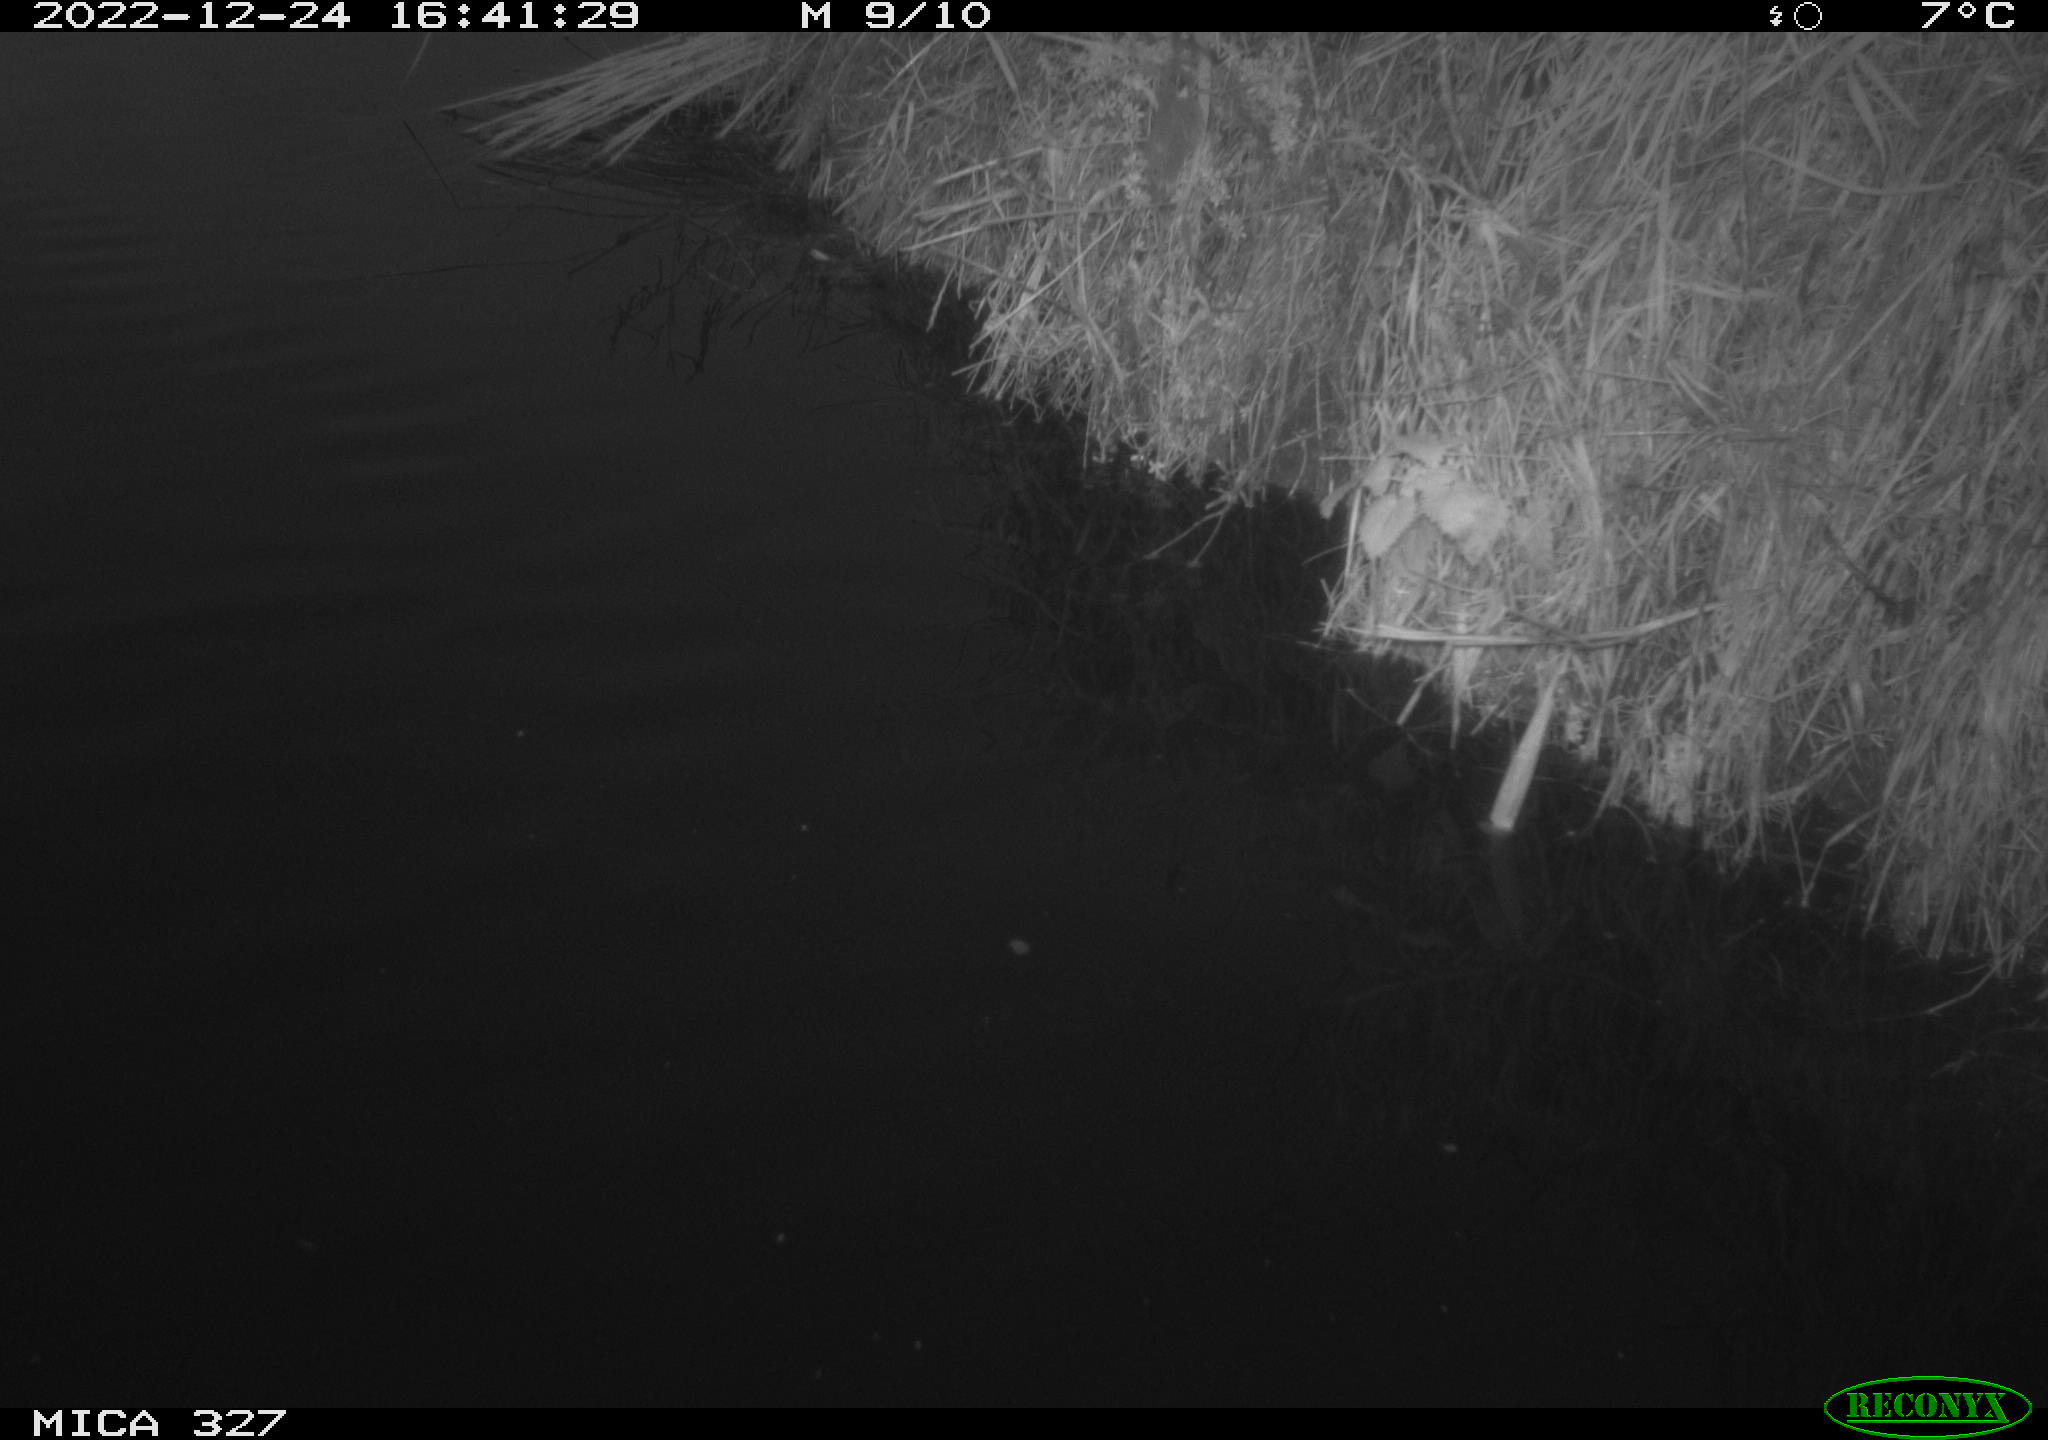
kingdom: Animalia
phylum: Chordata
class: Aves
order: Gruiformes
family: Rallidae
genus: Gallinula
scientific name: Gallinula chloropus
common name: Common moorhen
